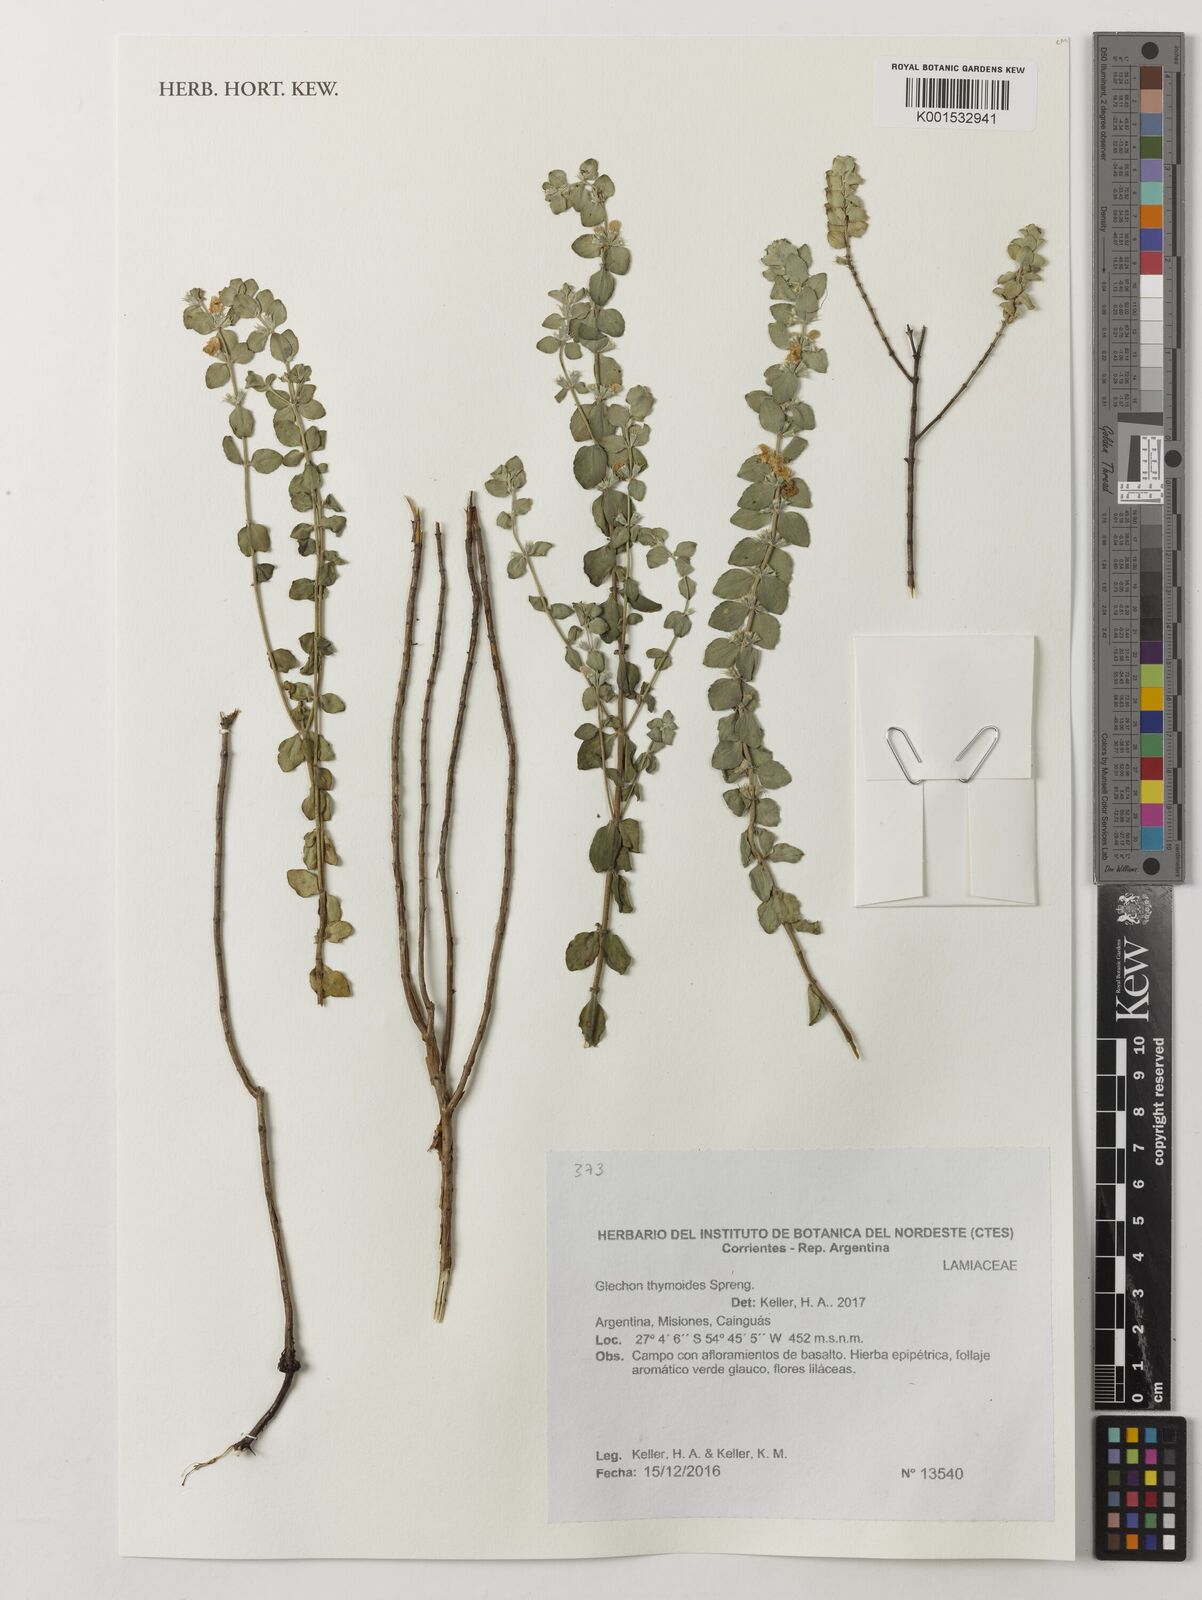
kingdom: Plantae
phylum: Tracheophyta
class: Magnoliopsida
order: Lamiales
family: Lamiaceae
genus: Glechon
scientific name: Glechon thymoides
